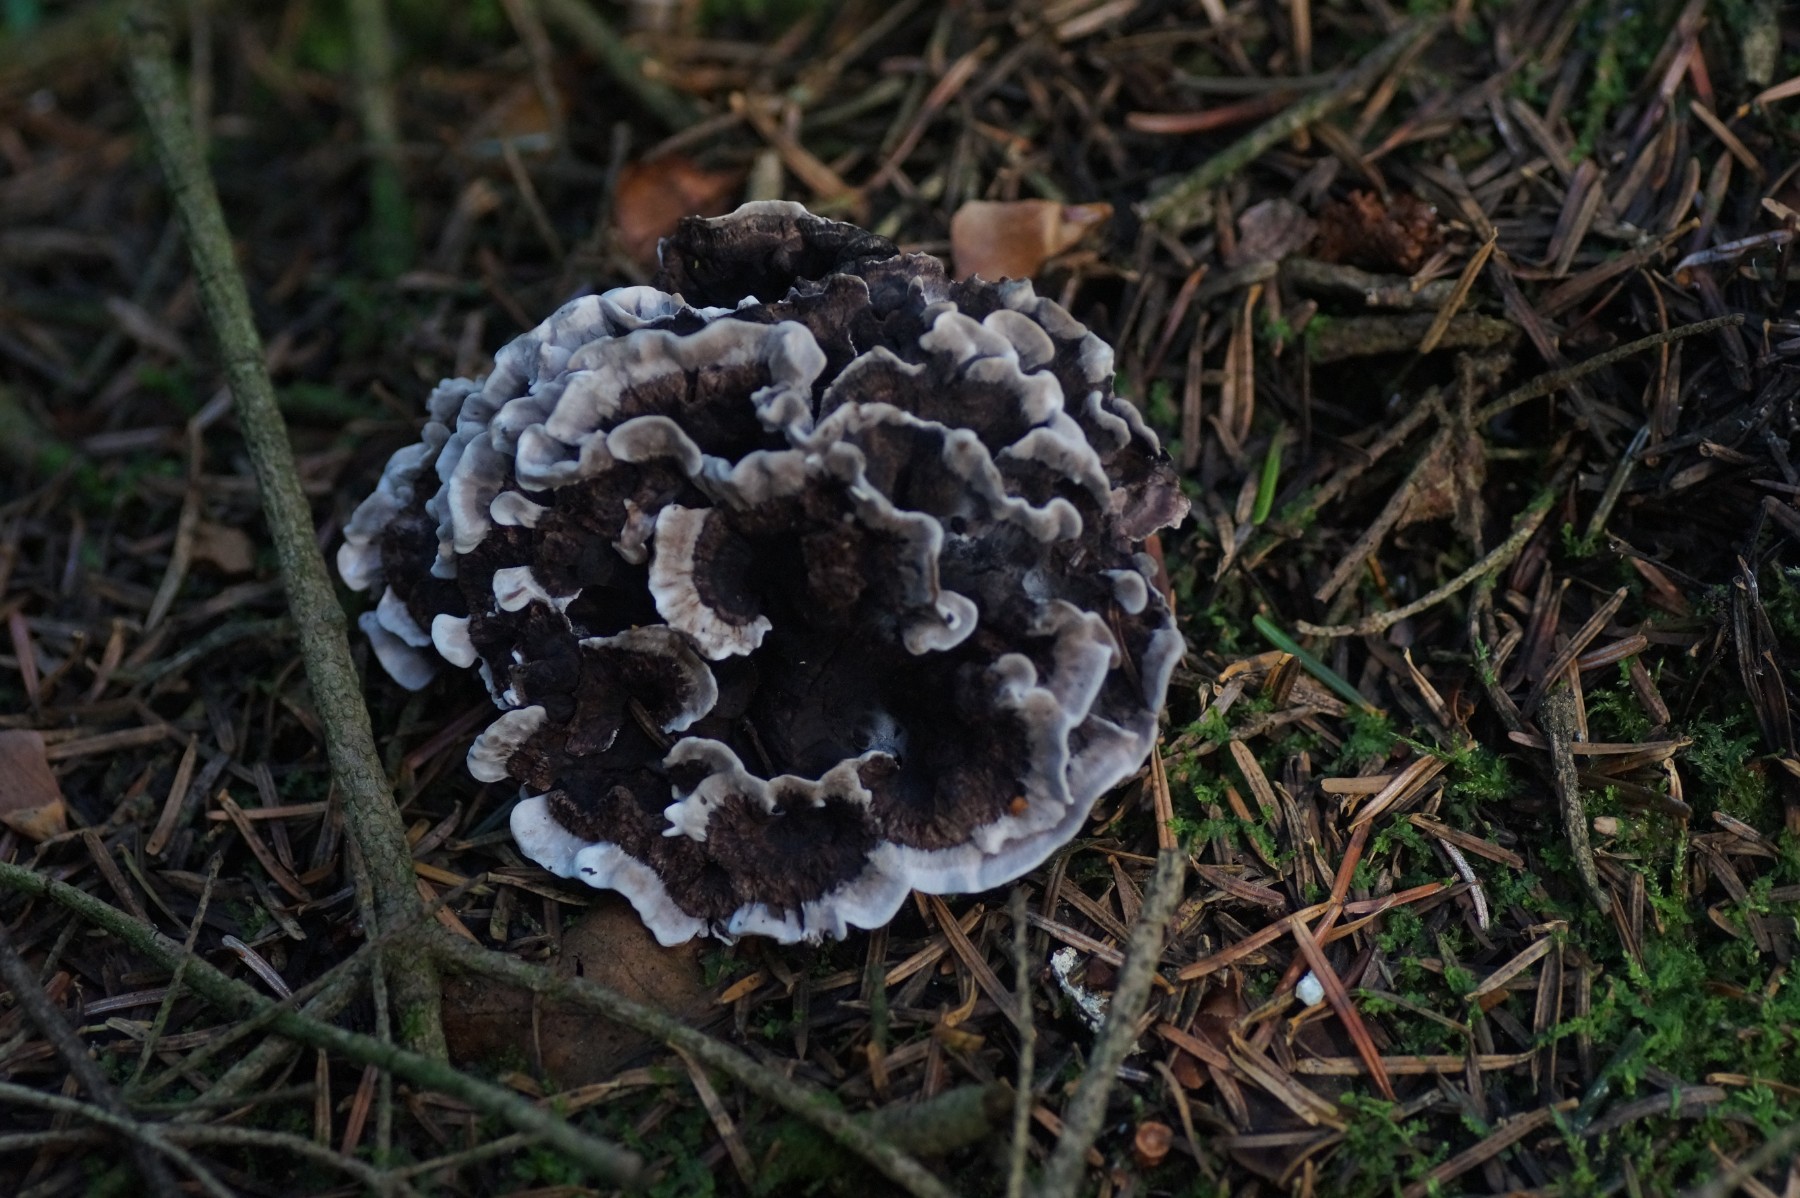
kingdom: Fungi
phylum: Basidiomycota
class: Agaricomycetes
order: Thelephorales
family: Thelephoraceae
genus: Phellodon
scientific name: Phellodon tomentosus
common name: vellugtende duftpigsvamp
